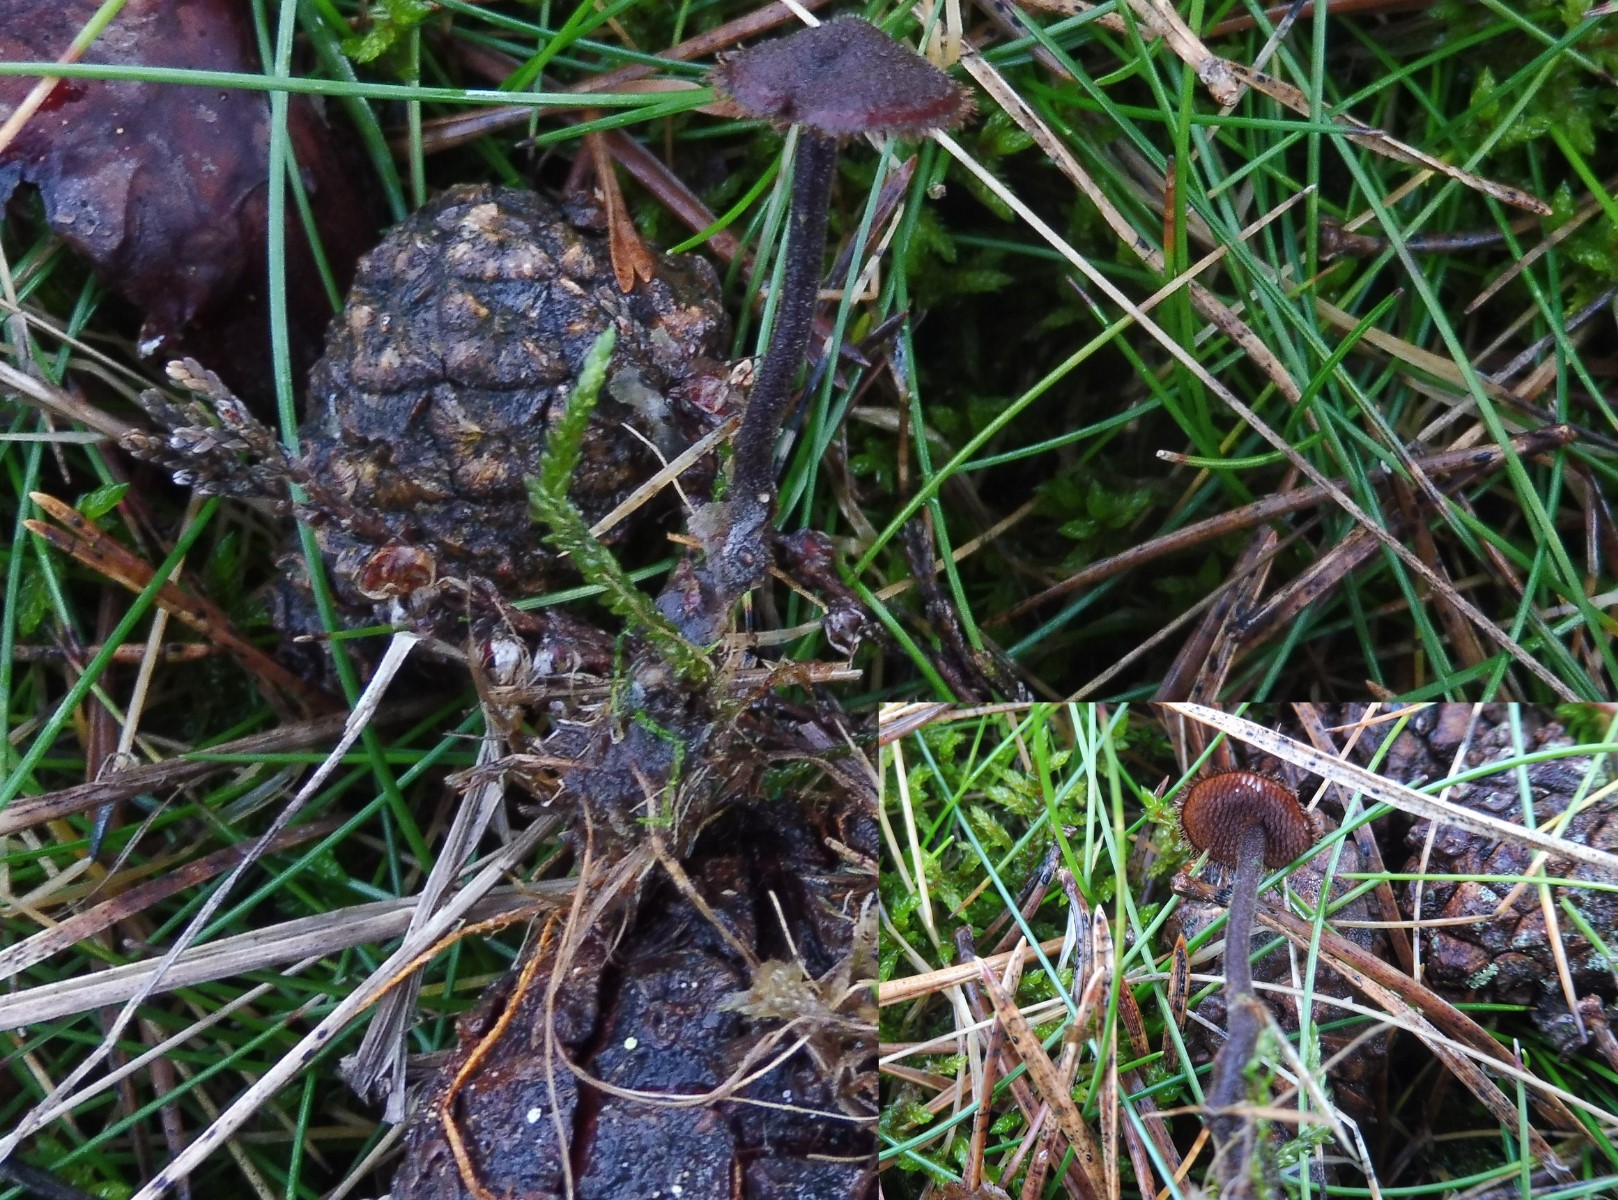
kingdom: Fungi
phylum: Basidiomycota
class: Agaricomycetes
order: Russulales
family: Auriscalpiaceae
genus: Auriscalpium
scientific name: Auriscalpium vulgare
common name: koglepigsvamp
